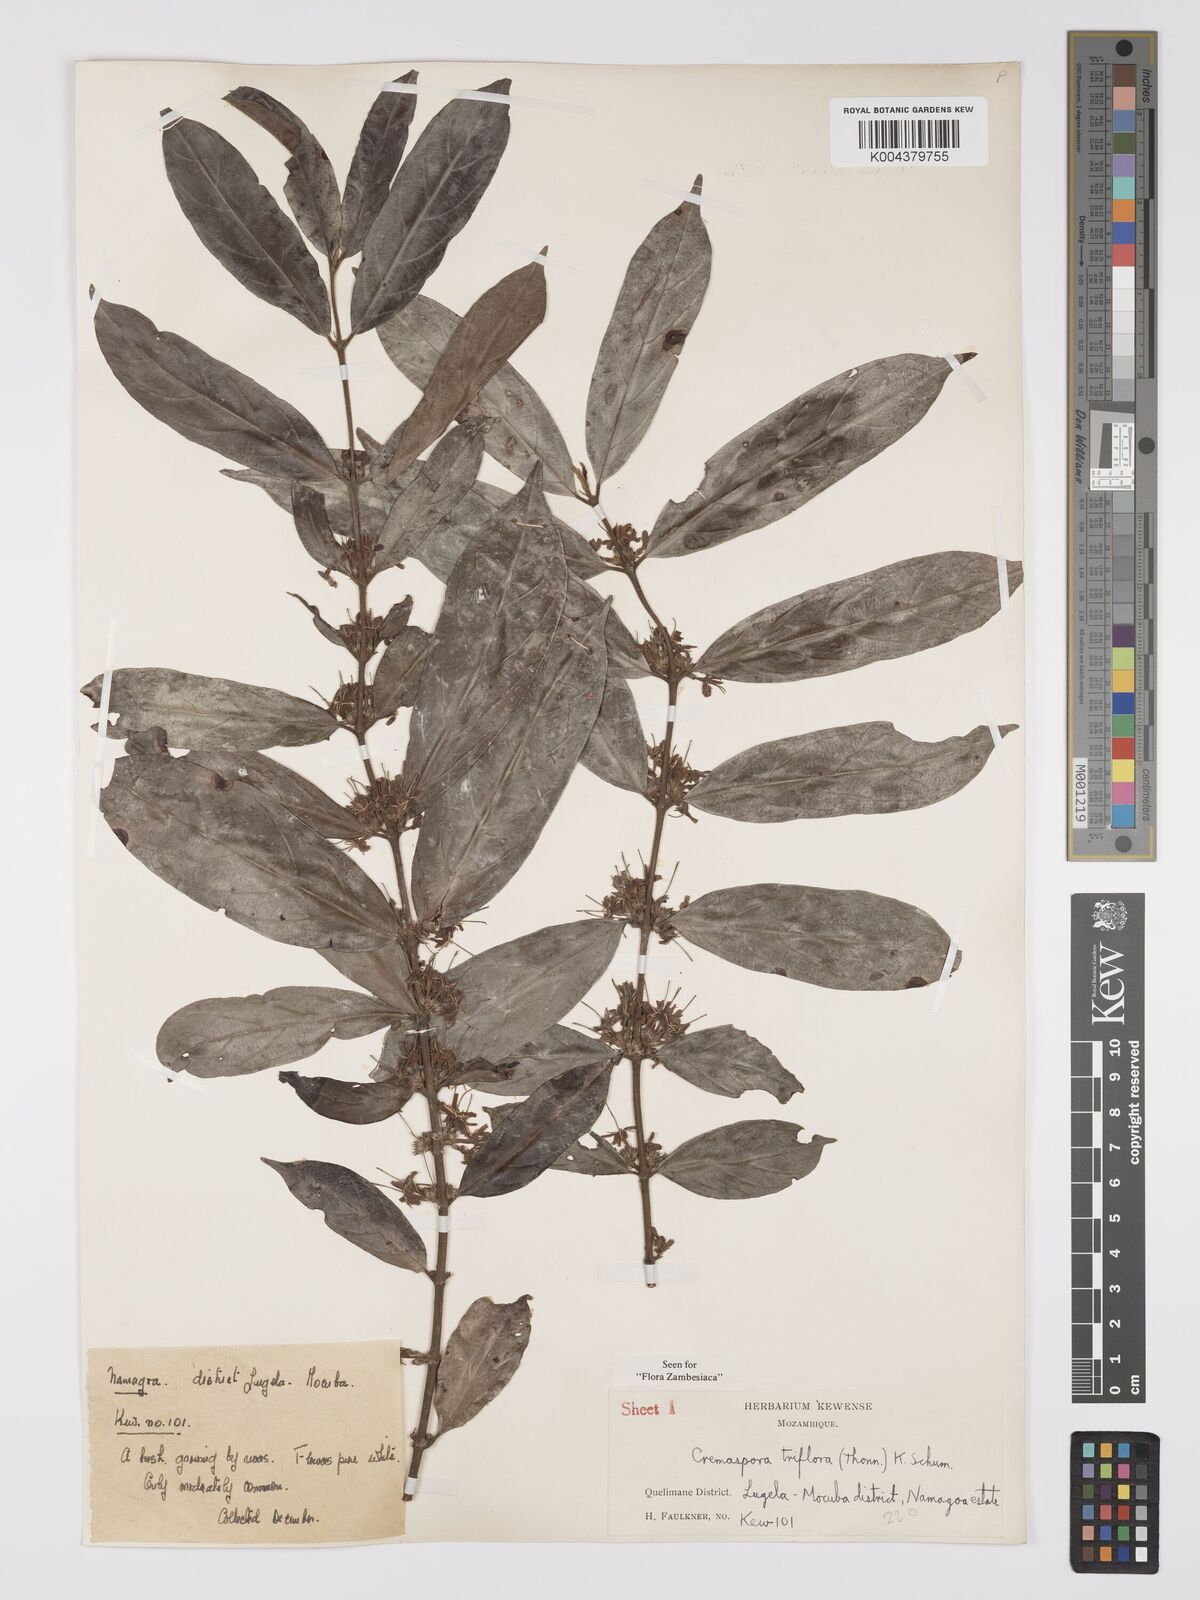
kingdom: Plantae
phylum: Tracheophyta
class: Magnoliopsida
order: Gentianales
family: Rubiaceae
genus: Cremaspora
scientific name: Cremaspora triflora
